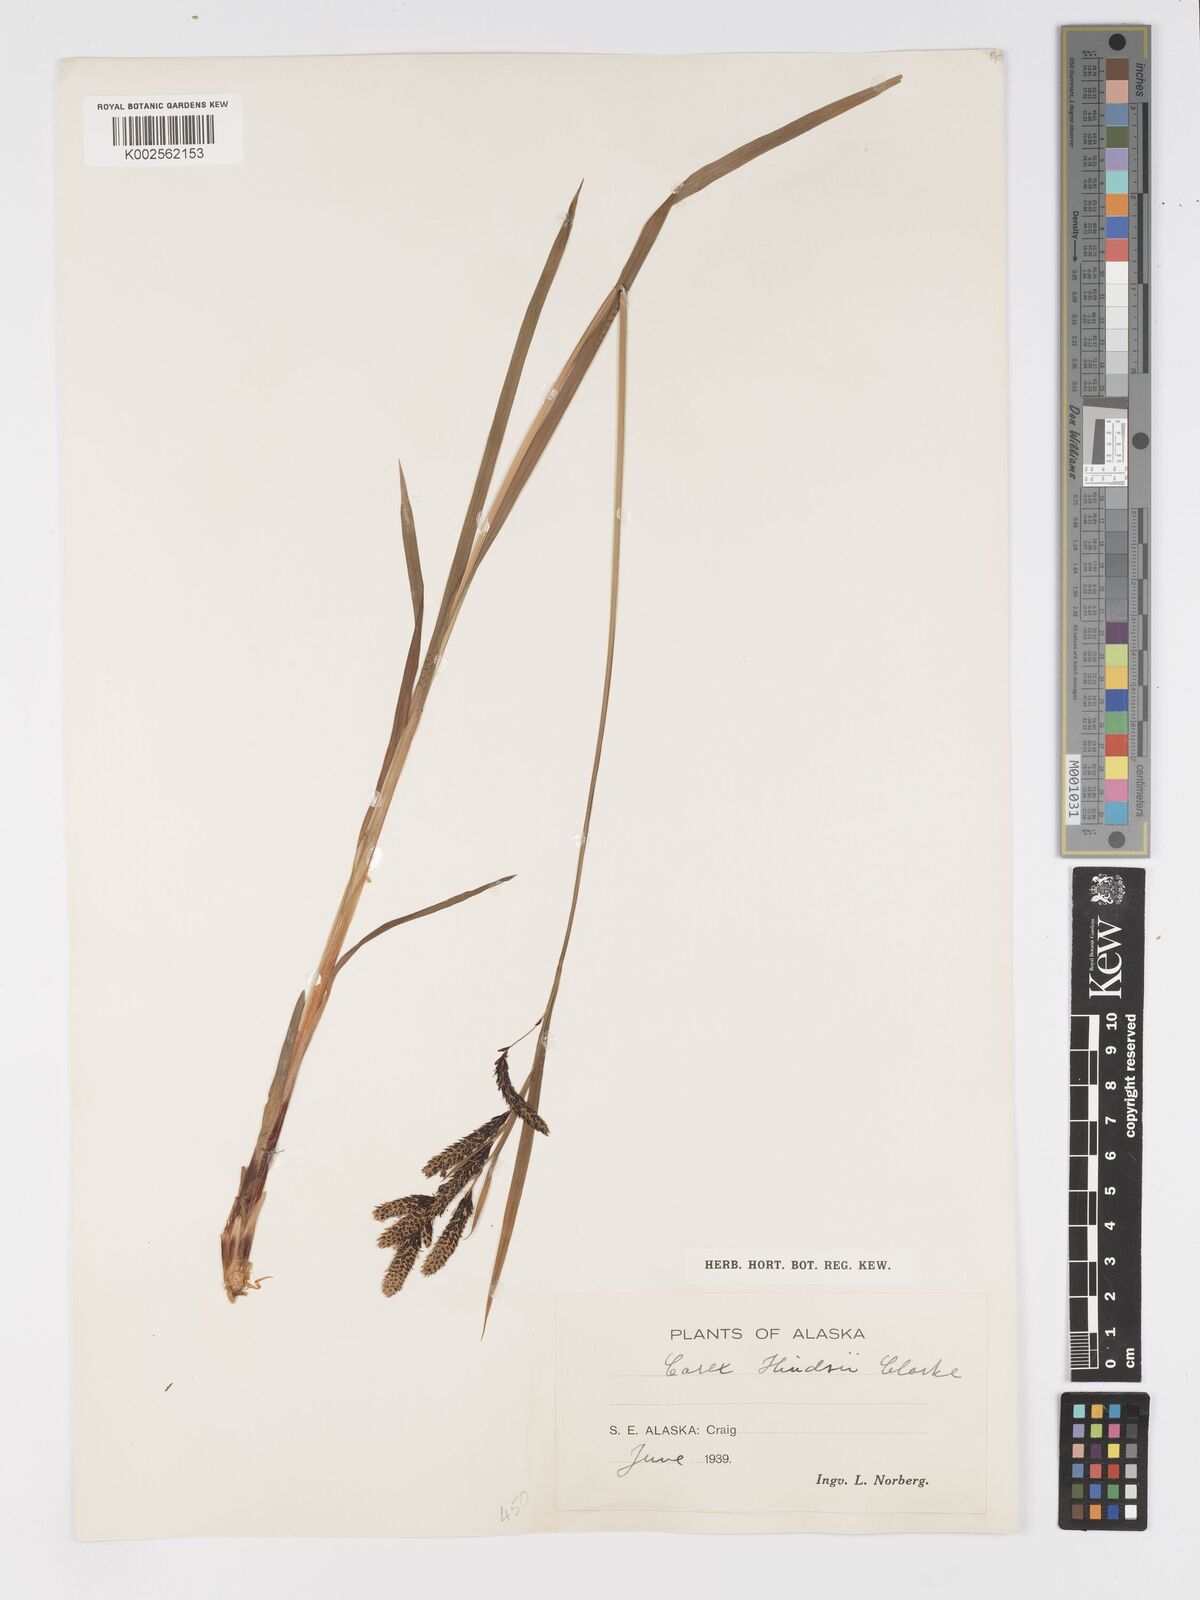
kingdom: Plantae
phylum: Tracheophyta
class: Liliopsida
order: Poales
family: Cyperaceae
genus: Carex
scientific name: Carex kelloggii
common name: Kellogg's sedge
